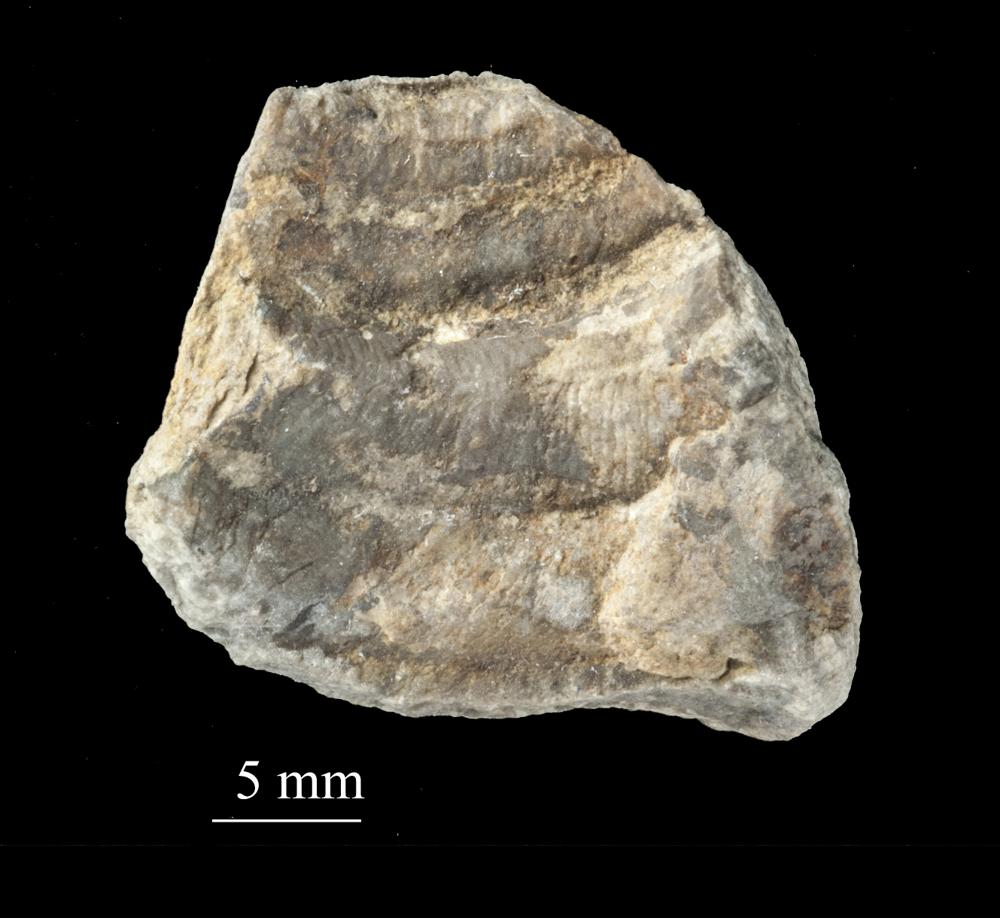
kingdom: Animalia
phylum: Mollusca
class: Gastropoda
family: Bucaniidae
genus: Salpingostoma
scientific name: Salpingostoma
